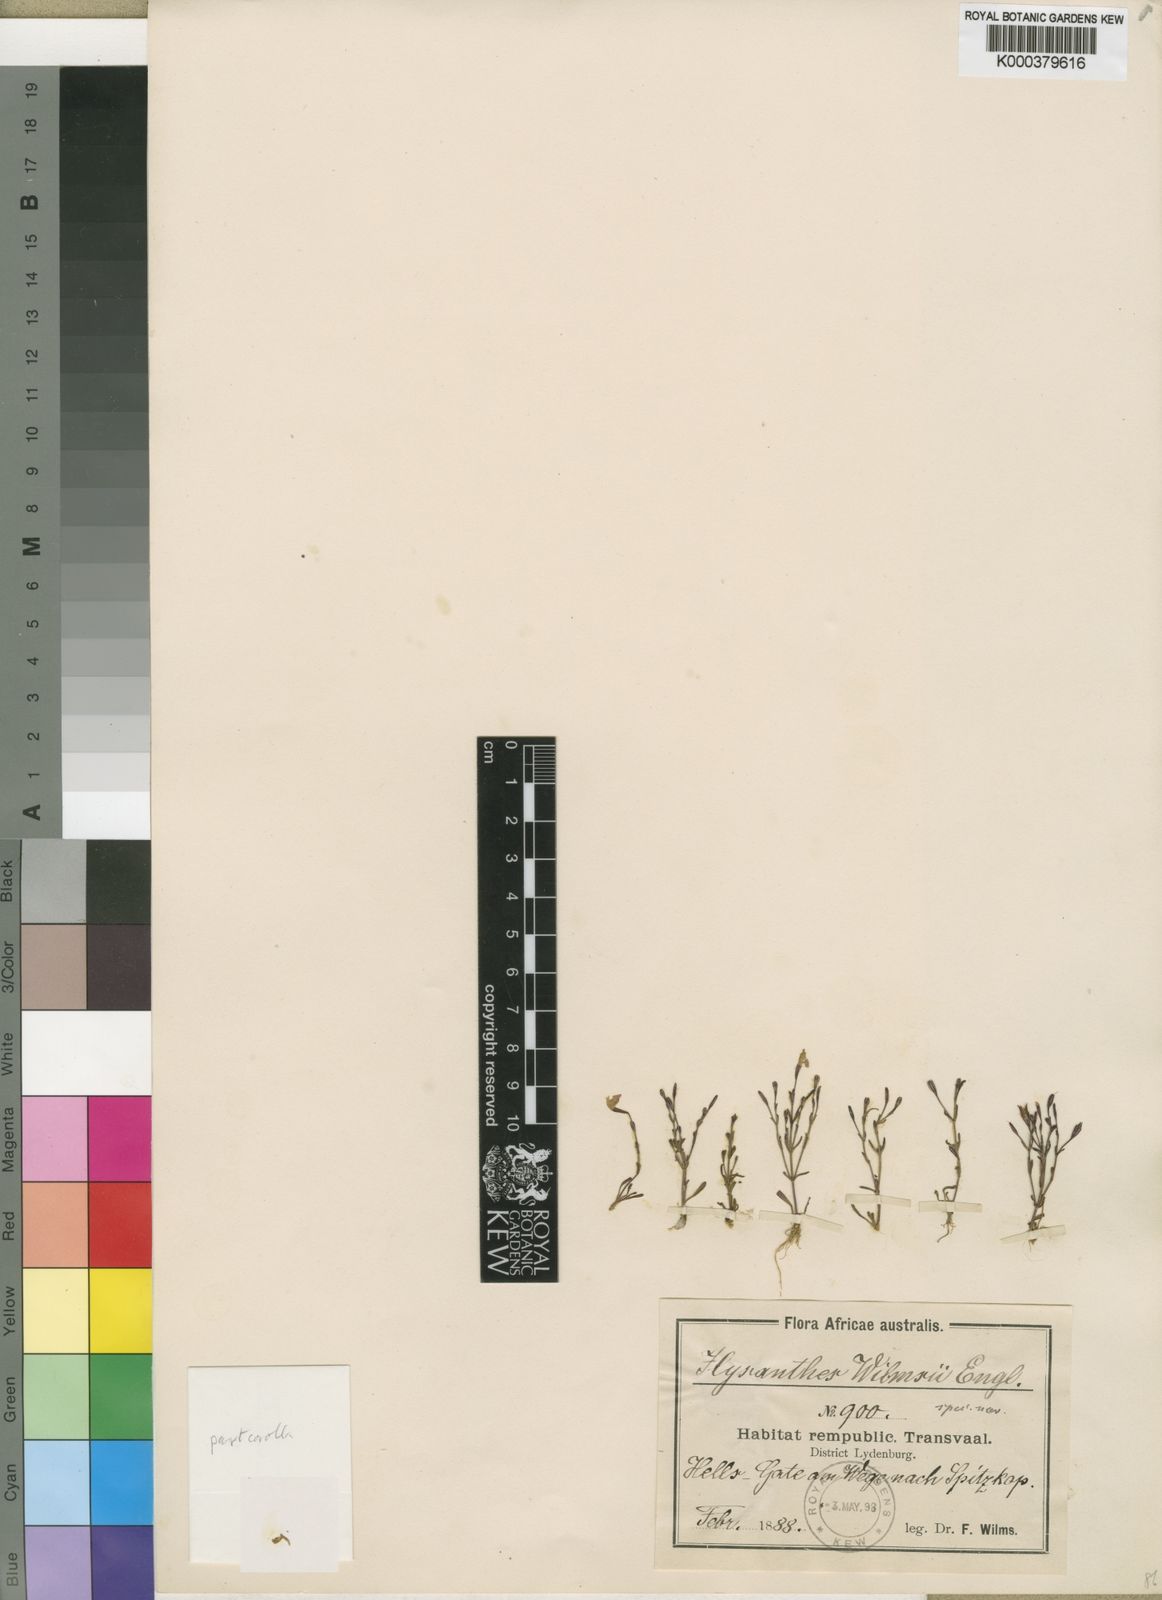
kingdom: Plantae
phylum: Tracheophyta
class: Magnoliopsida
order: Lamiales
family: Linderniaceae
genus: Linderniella
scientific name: Linderniella wilmsii
